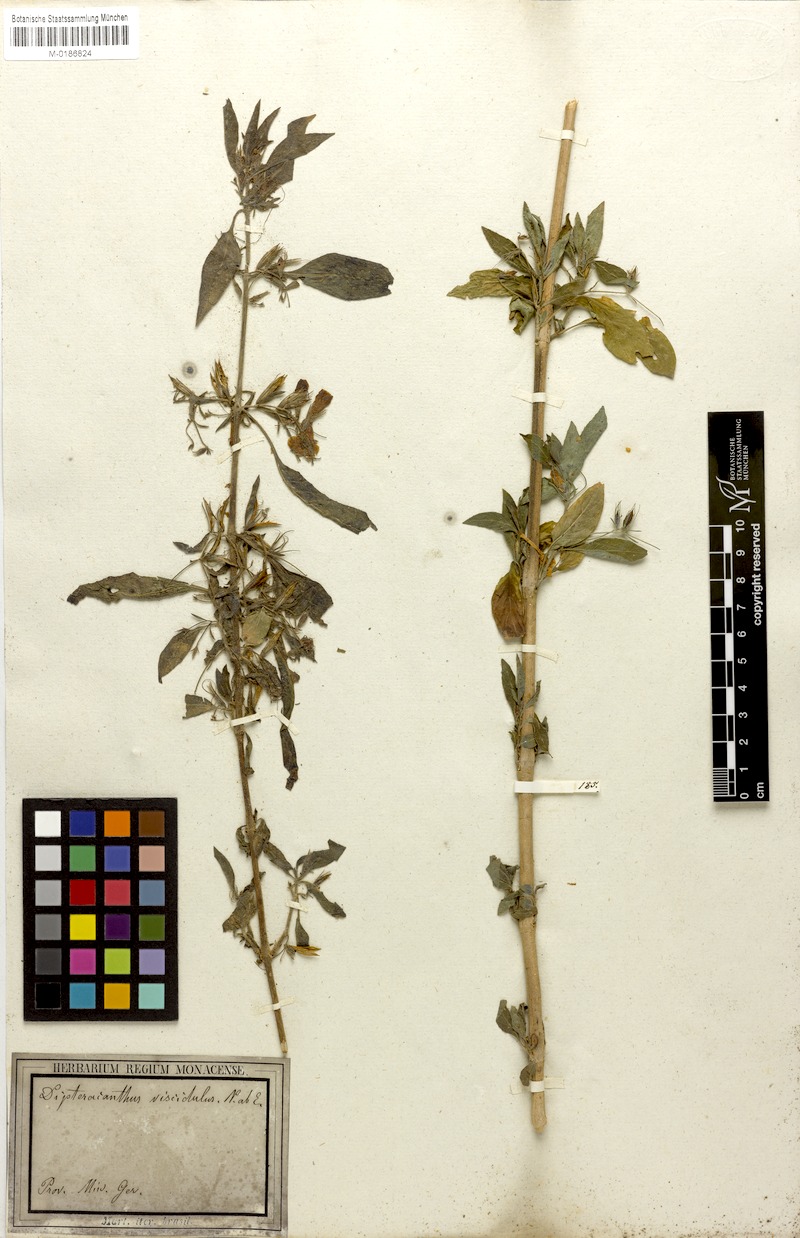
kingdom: Plantae
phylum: Tracheophyta
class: Magnoliopsida
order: Lamiales
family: Acanthaceae
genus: Ruellia
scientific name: Ruellia viscidula
